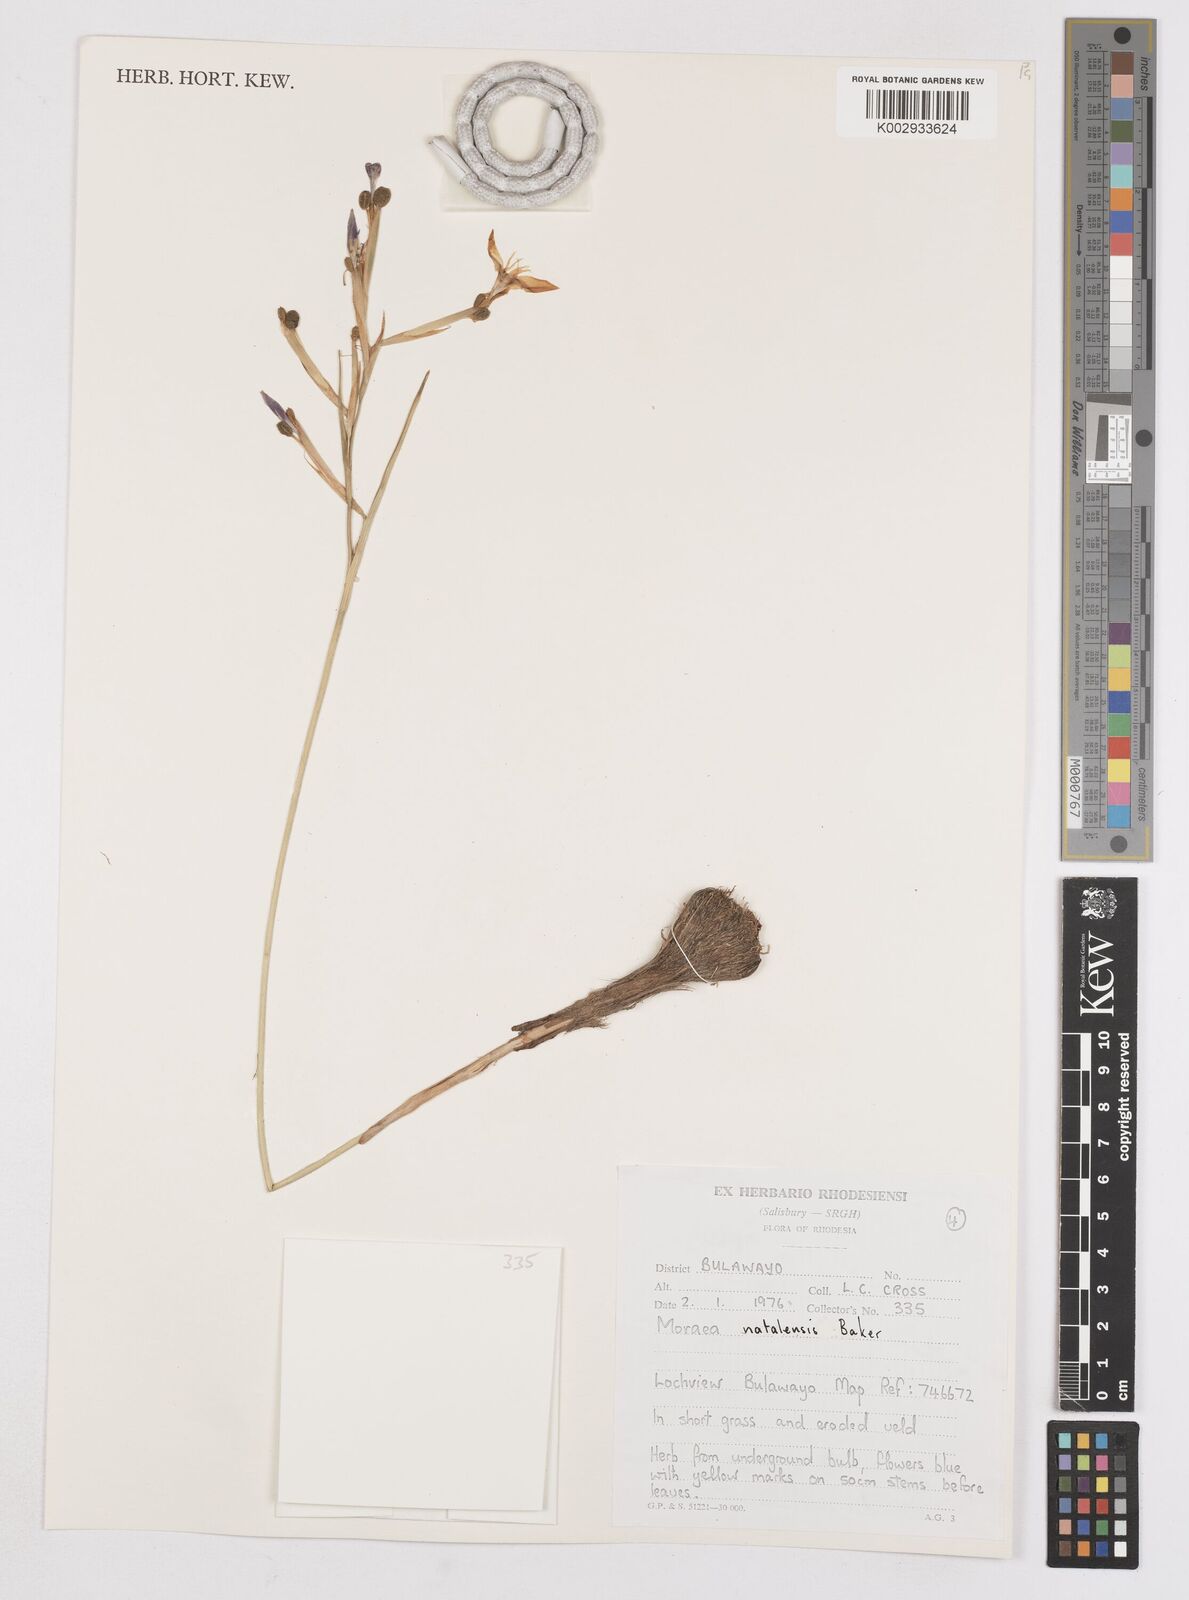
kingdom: Plantae
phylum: Tracheophyta
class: Liliopsida
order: Asparagales
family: Iridaceae
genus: Moraea
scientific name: Moraea natalensis
